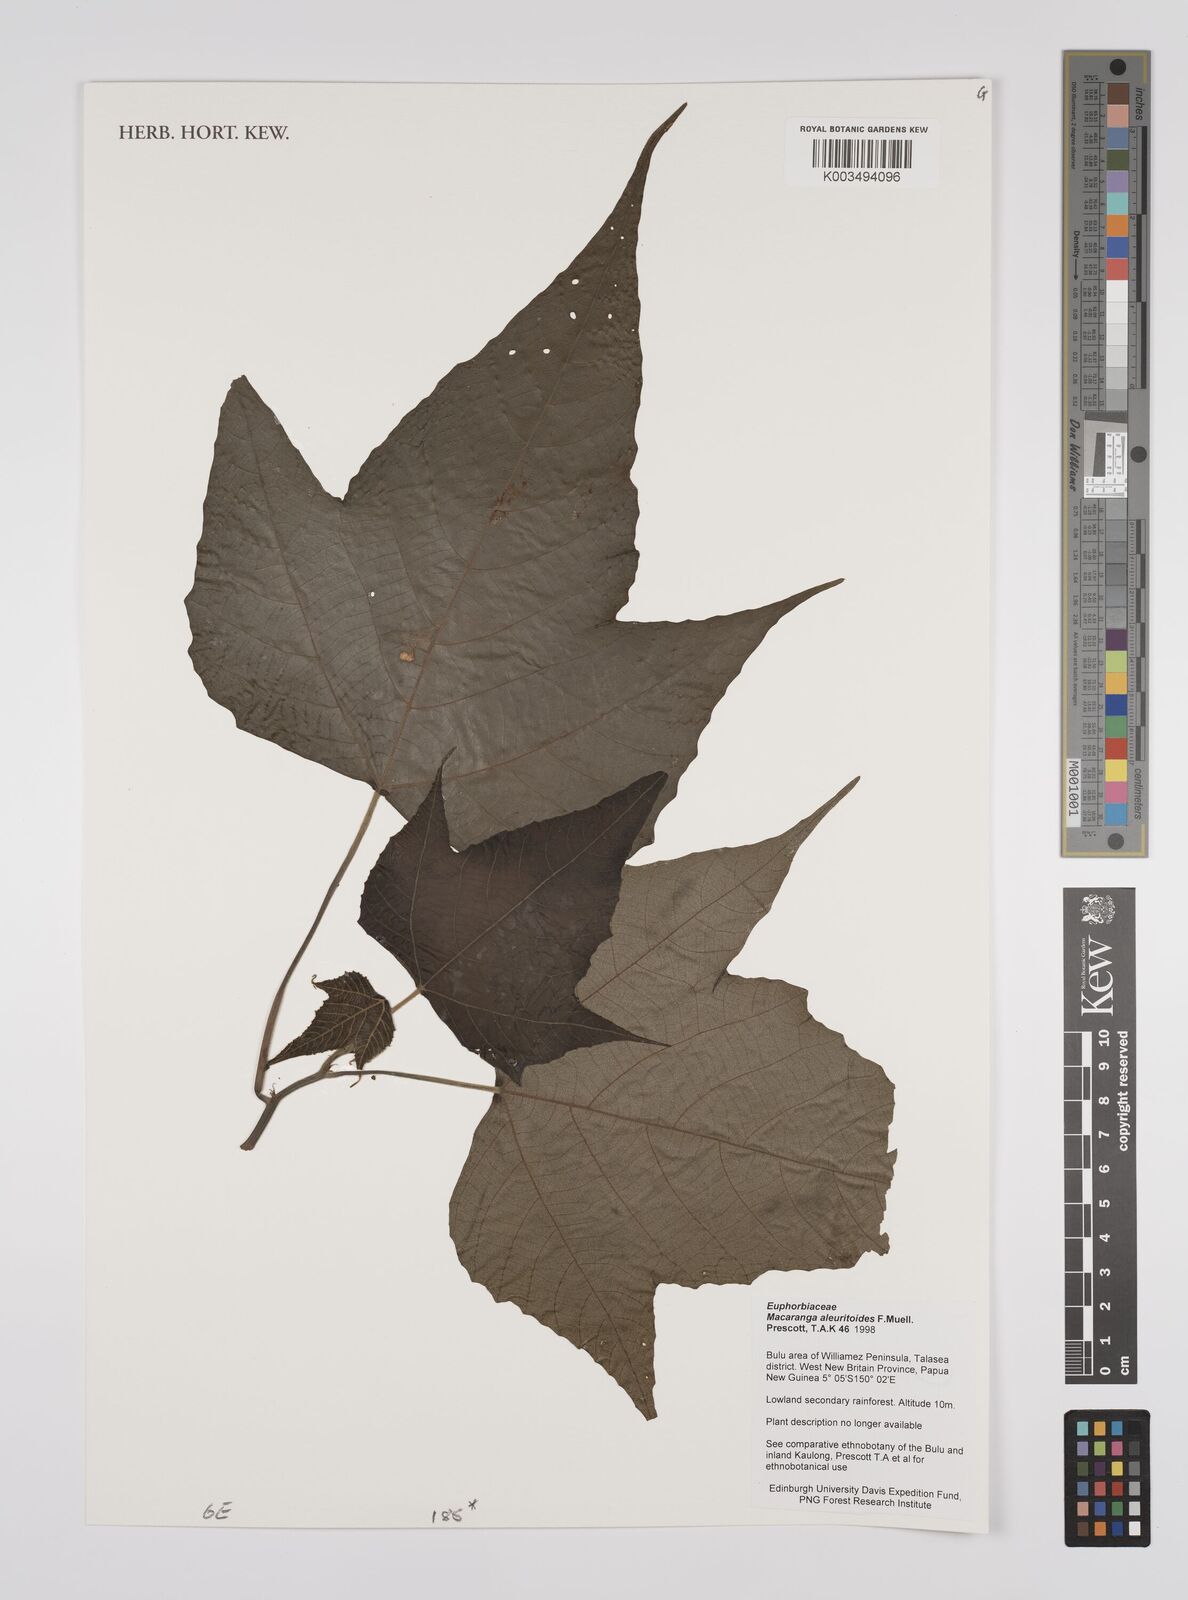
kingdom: Plantae
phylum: Tracheophyta
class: Magnoliopsida
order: Malpighiales
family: Euphorbiaceae
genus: Macaranga
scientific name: Macaranga aleuritoides
